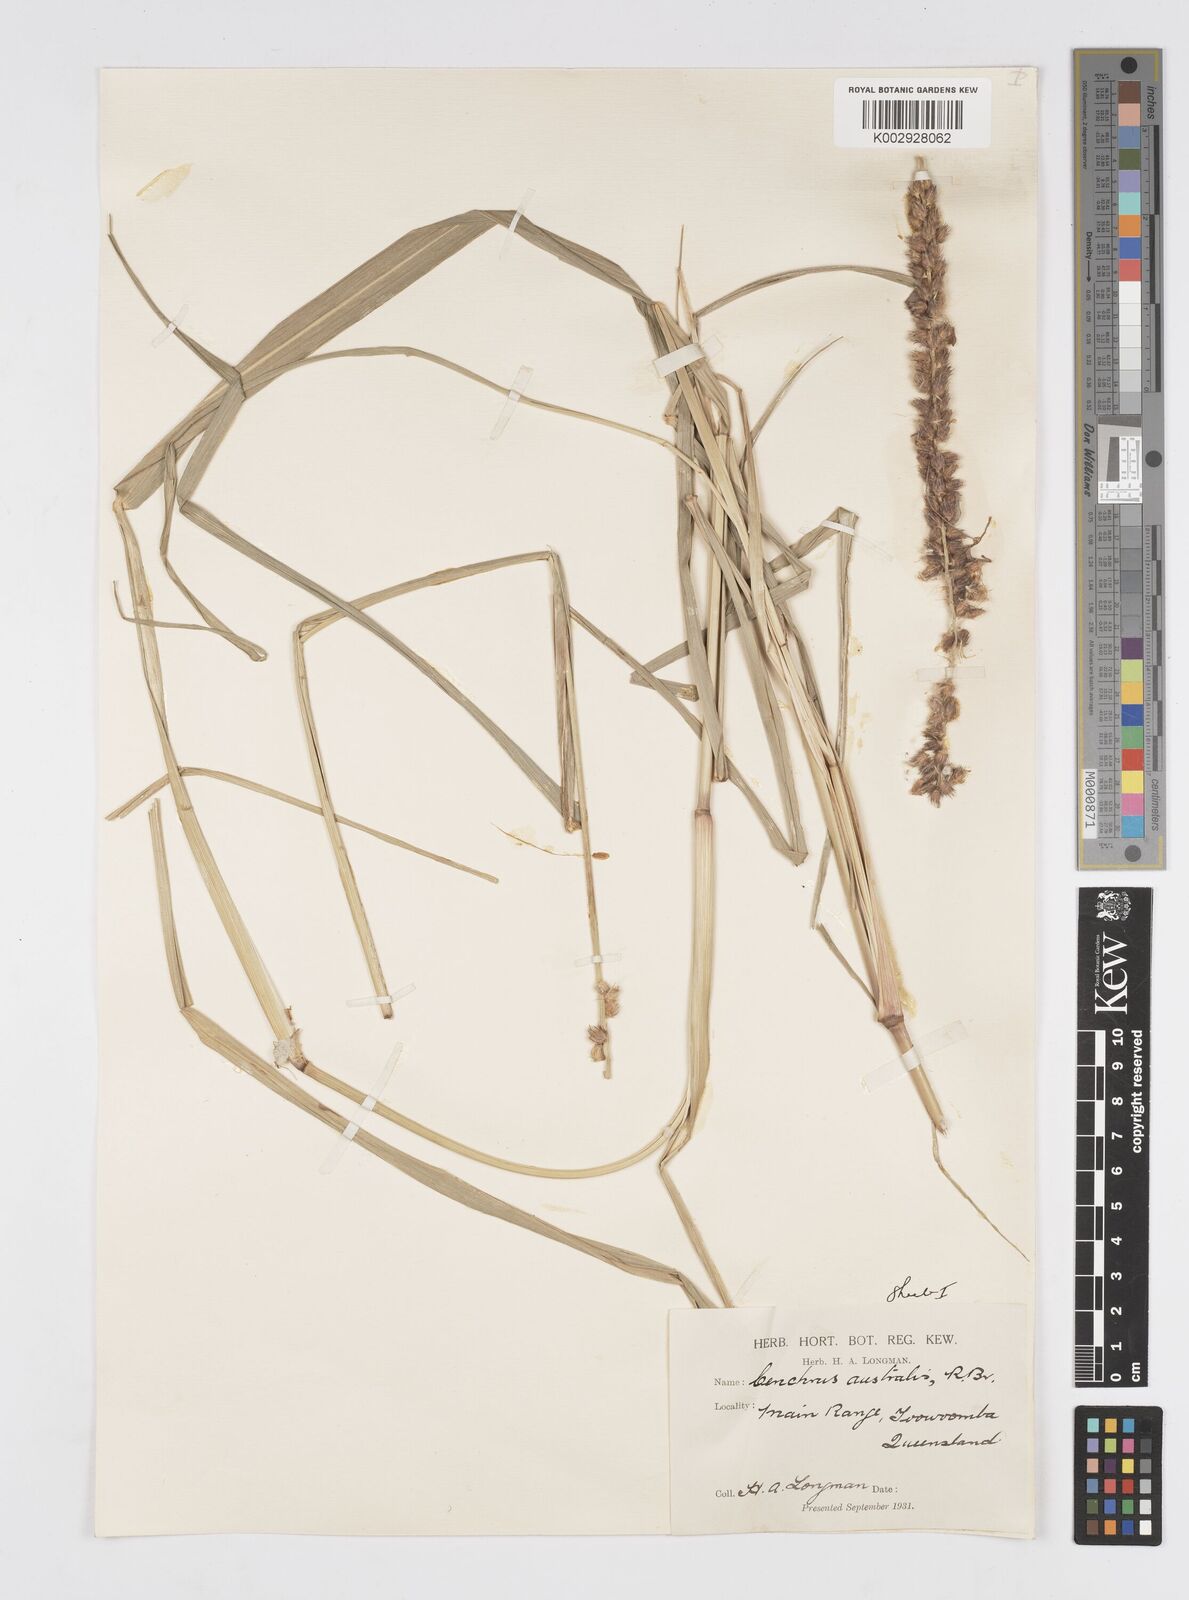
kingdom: Plantae
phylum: Tracheophyta
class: Liliopsida
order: Poales
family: Poaceae
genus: Cenchrus
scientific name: Cenchrus caliculatus
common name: Large bur grass
